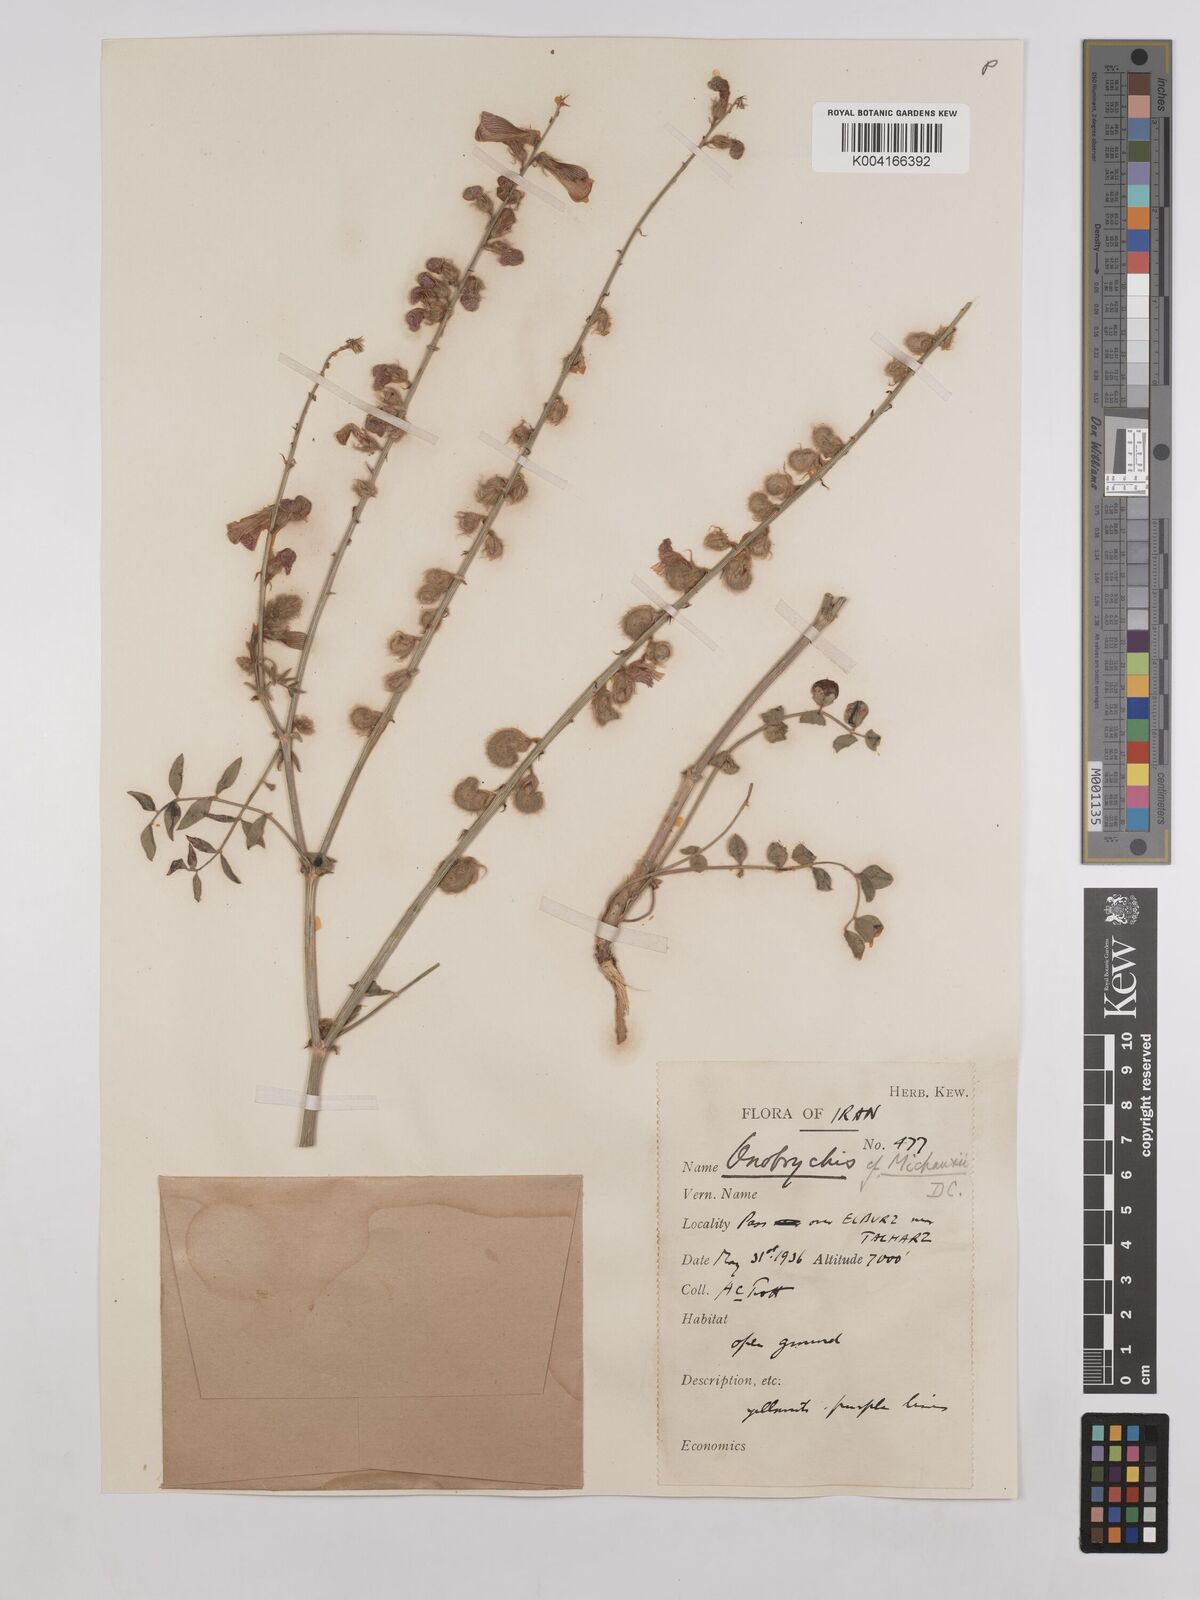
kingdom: Plantae
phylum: Tracheophyta
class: Magnoliopsida
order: Fabales
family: Fabaceae
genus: Onobrychis
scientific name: Onobrychis michauxii
